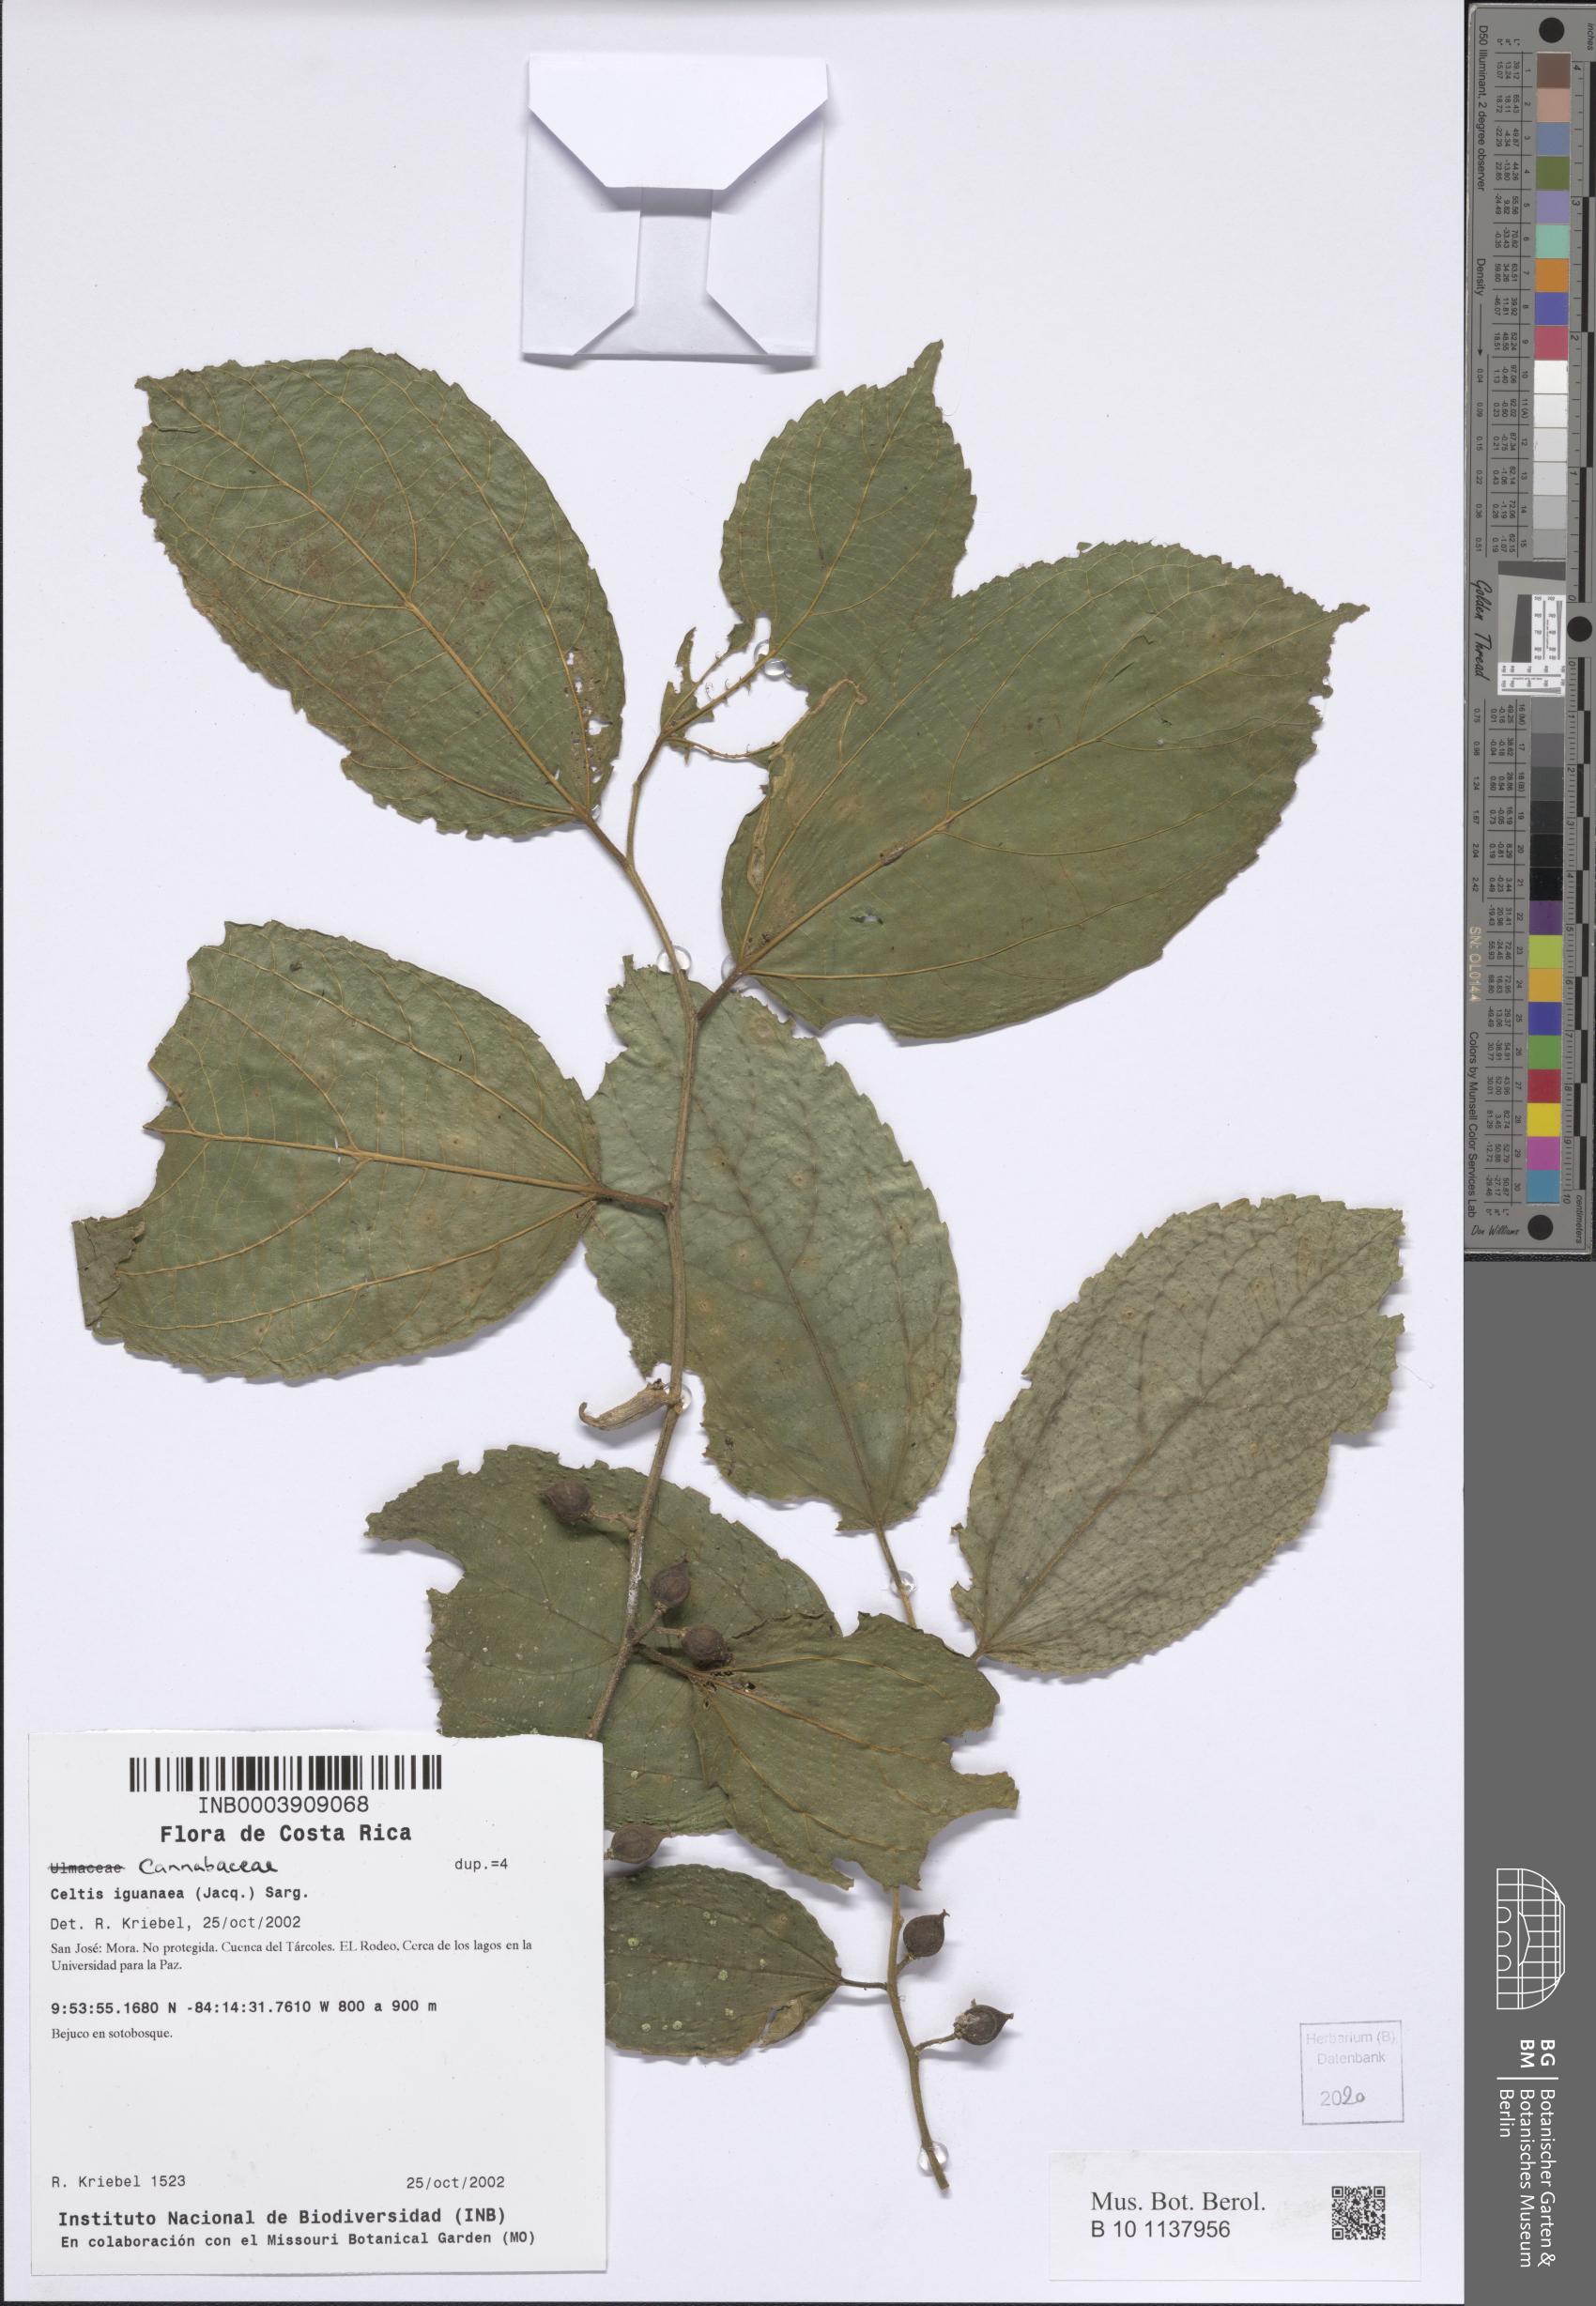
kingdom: Plantae
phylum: Tracheophyta
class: Magnoliopsida
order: Rosales
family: Cannabaceae
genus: Celtis
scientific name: Celtis iguanaea
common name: Iguana hackberry
